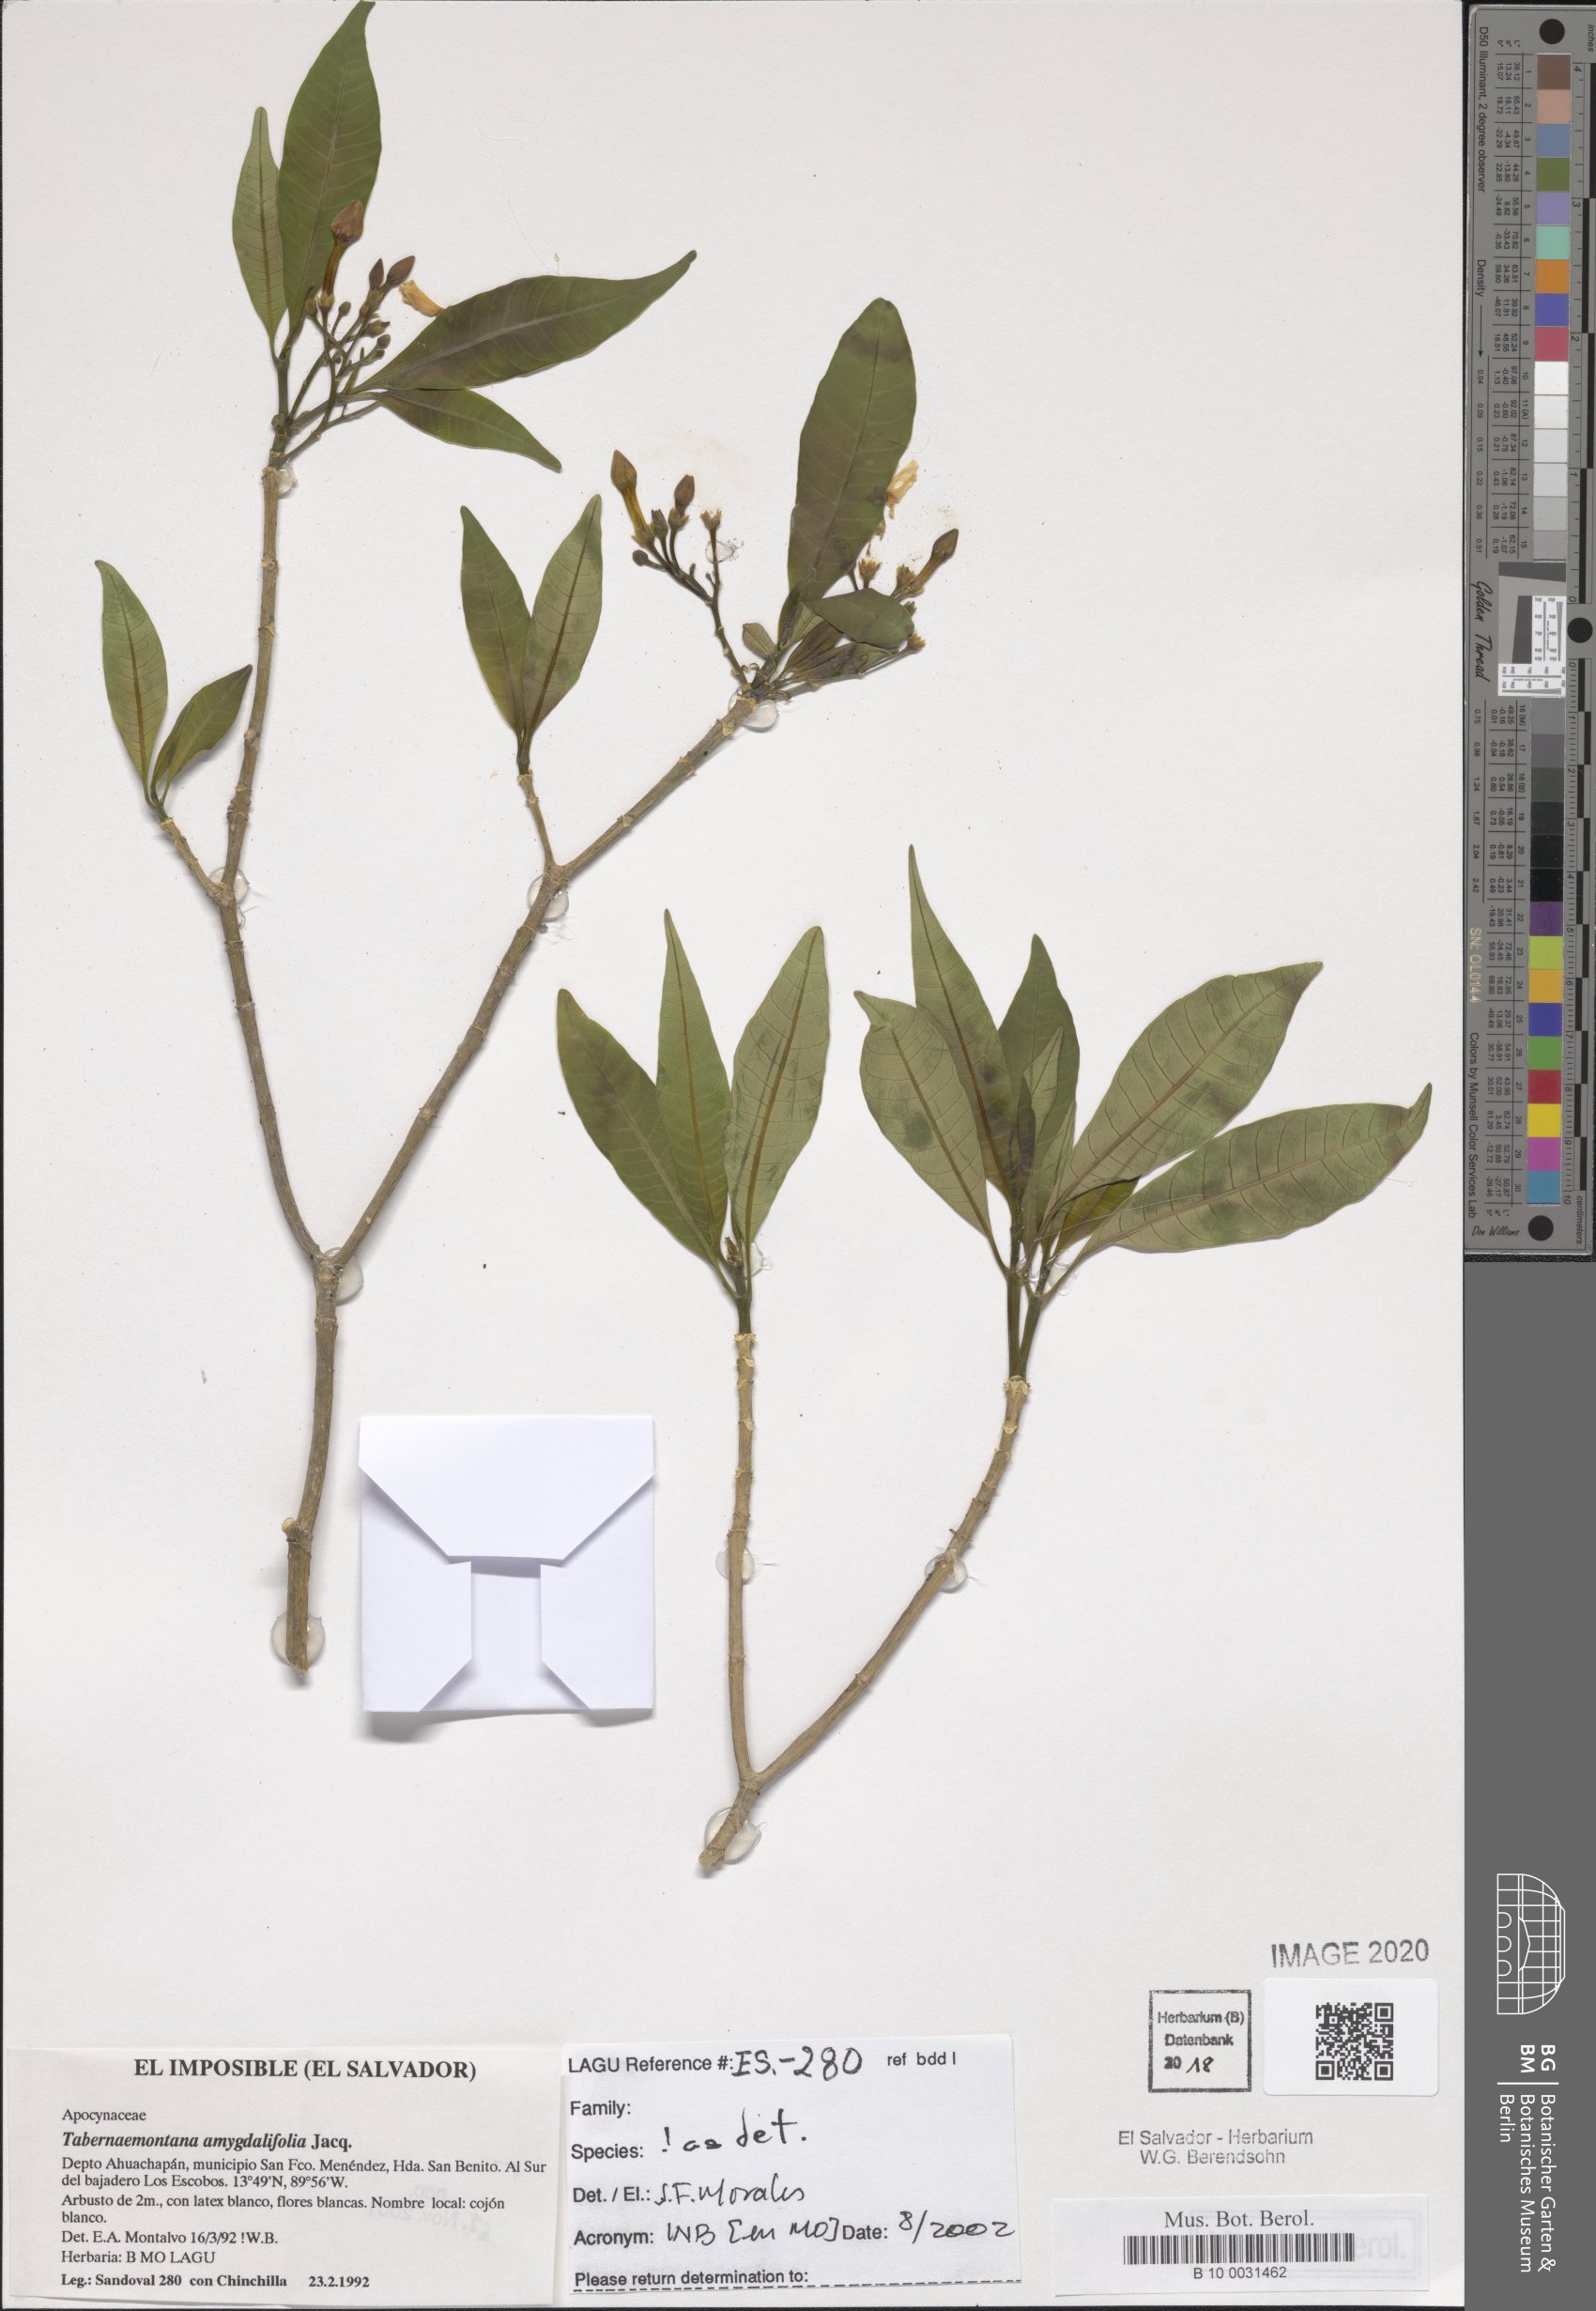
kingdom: Plantae
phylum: Tracheophyta
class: Magnoliopsida
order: Gentianales
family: Apocynaceae
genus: Tabernaemontana
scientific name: Tabernaemontana amygdalifolia
